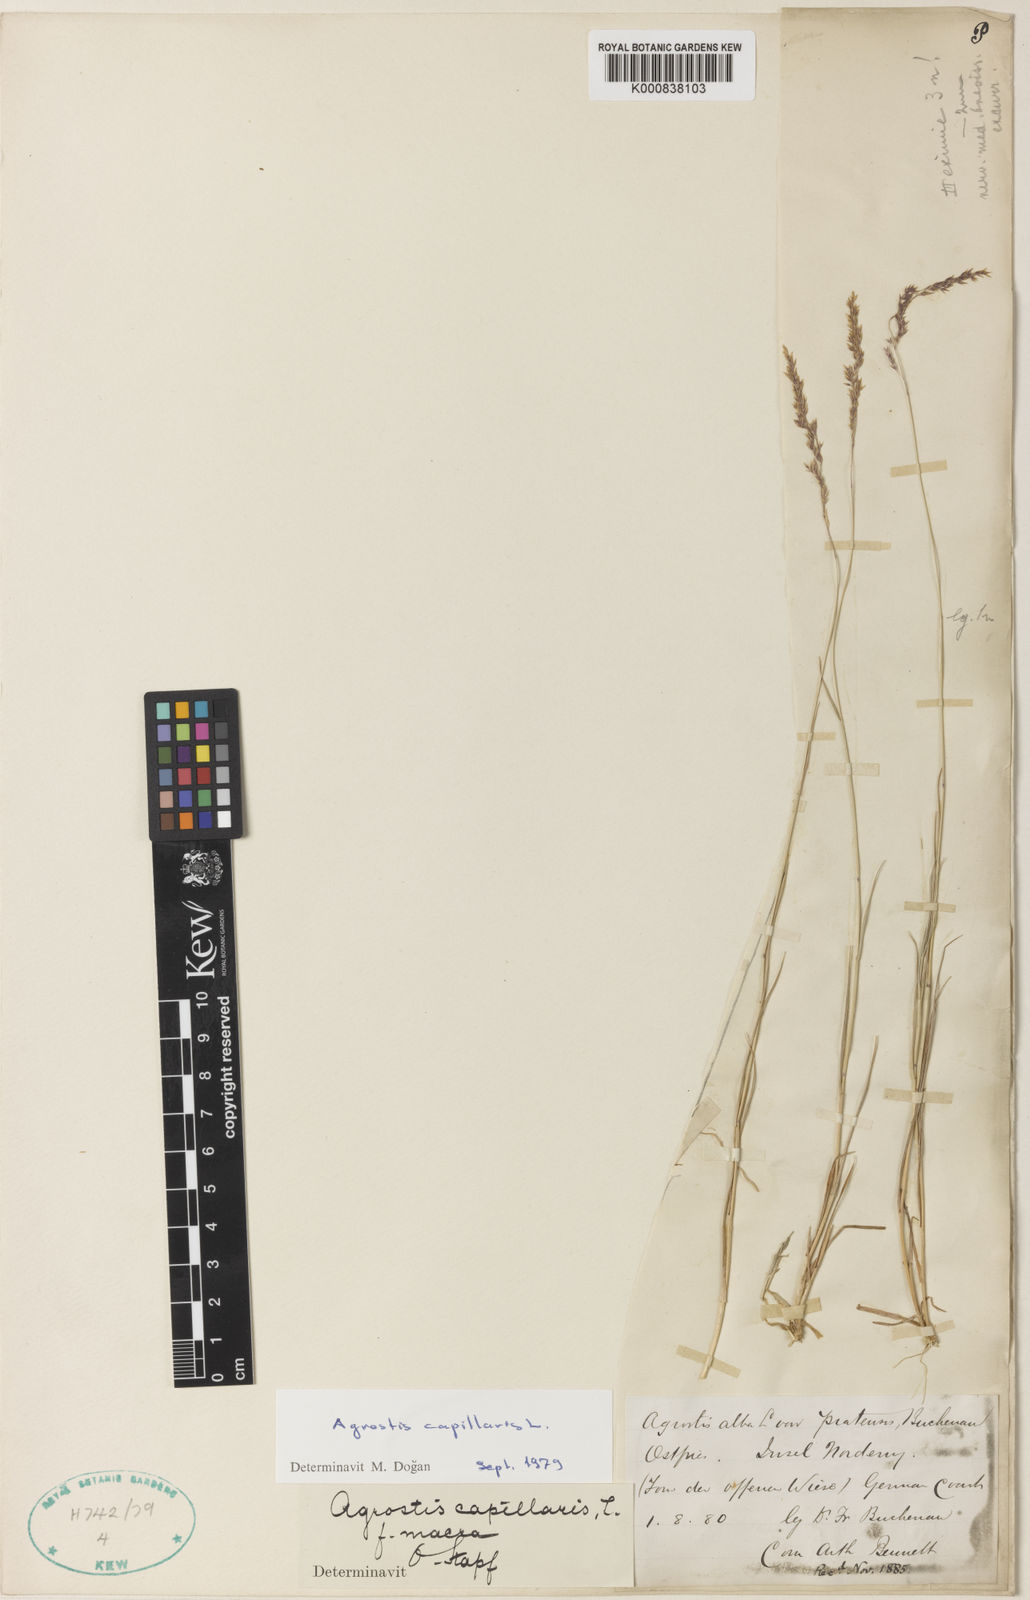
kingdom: Plantae
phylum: Tracheophyta
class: Liliopsida
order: Poales
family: Poaceae
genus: Agrostis
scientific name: Agrostis stolonifera
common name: Creeping bentgrass
